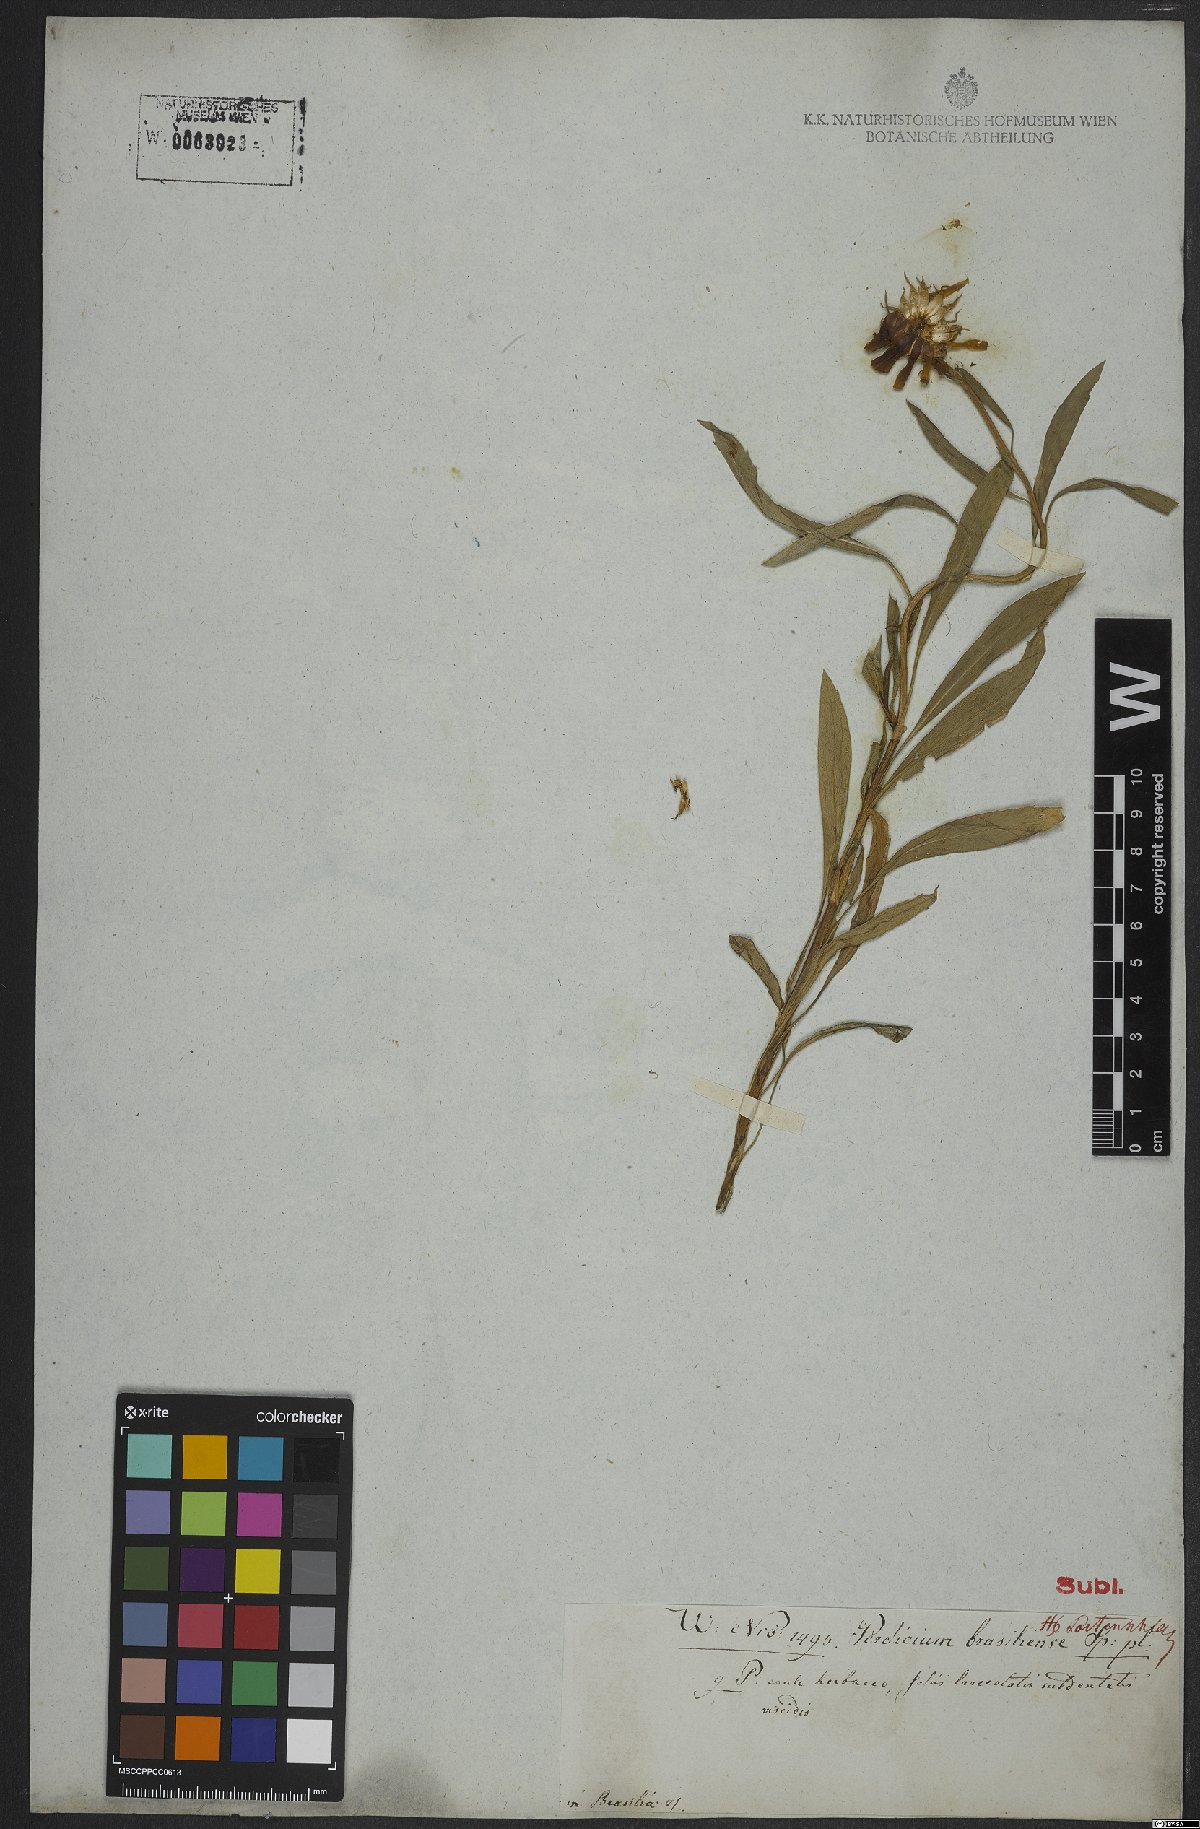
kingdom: Plantae
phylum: Tracheophyta
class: Magnoliopsida
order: Asterales
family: Asteraceae
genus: Holocheilus
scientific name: Holocheilus brasiliensis
